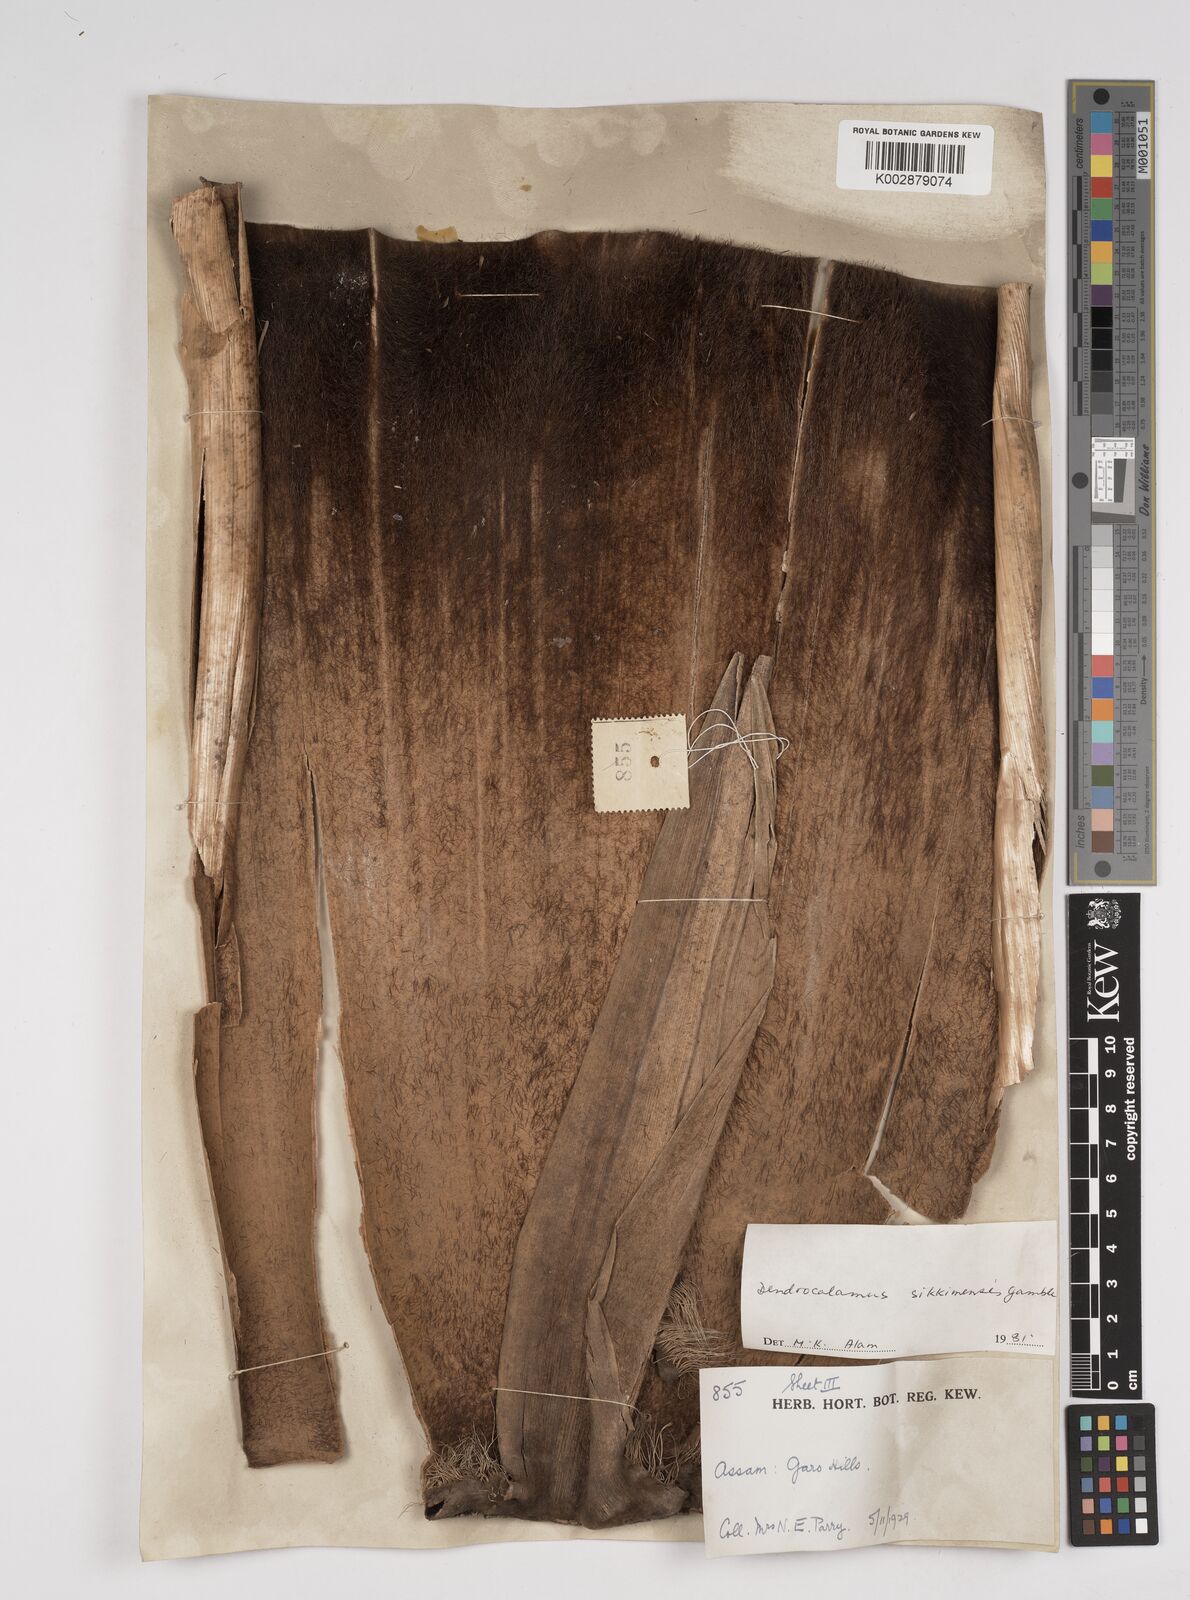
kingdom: Plantae
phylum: Tracheophyta
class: Liliopsida
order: Poales
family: Poaceae
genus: Dendrocalamus
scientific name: Dendrocalamus sikkimensis
